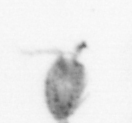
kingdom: Animalia
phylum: Arthropoda
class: Copepoda
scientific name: Copepoda
